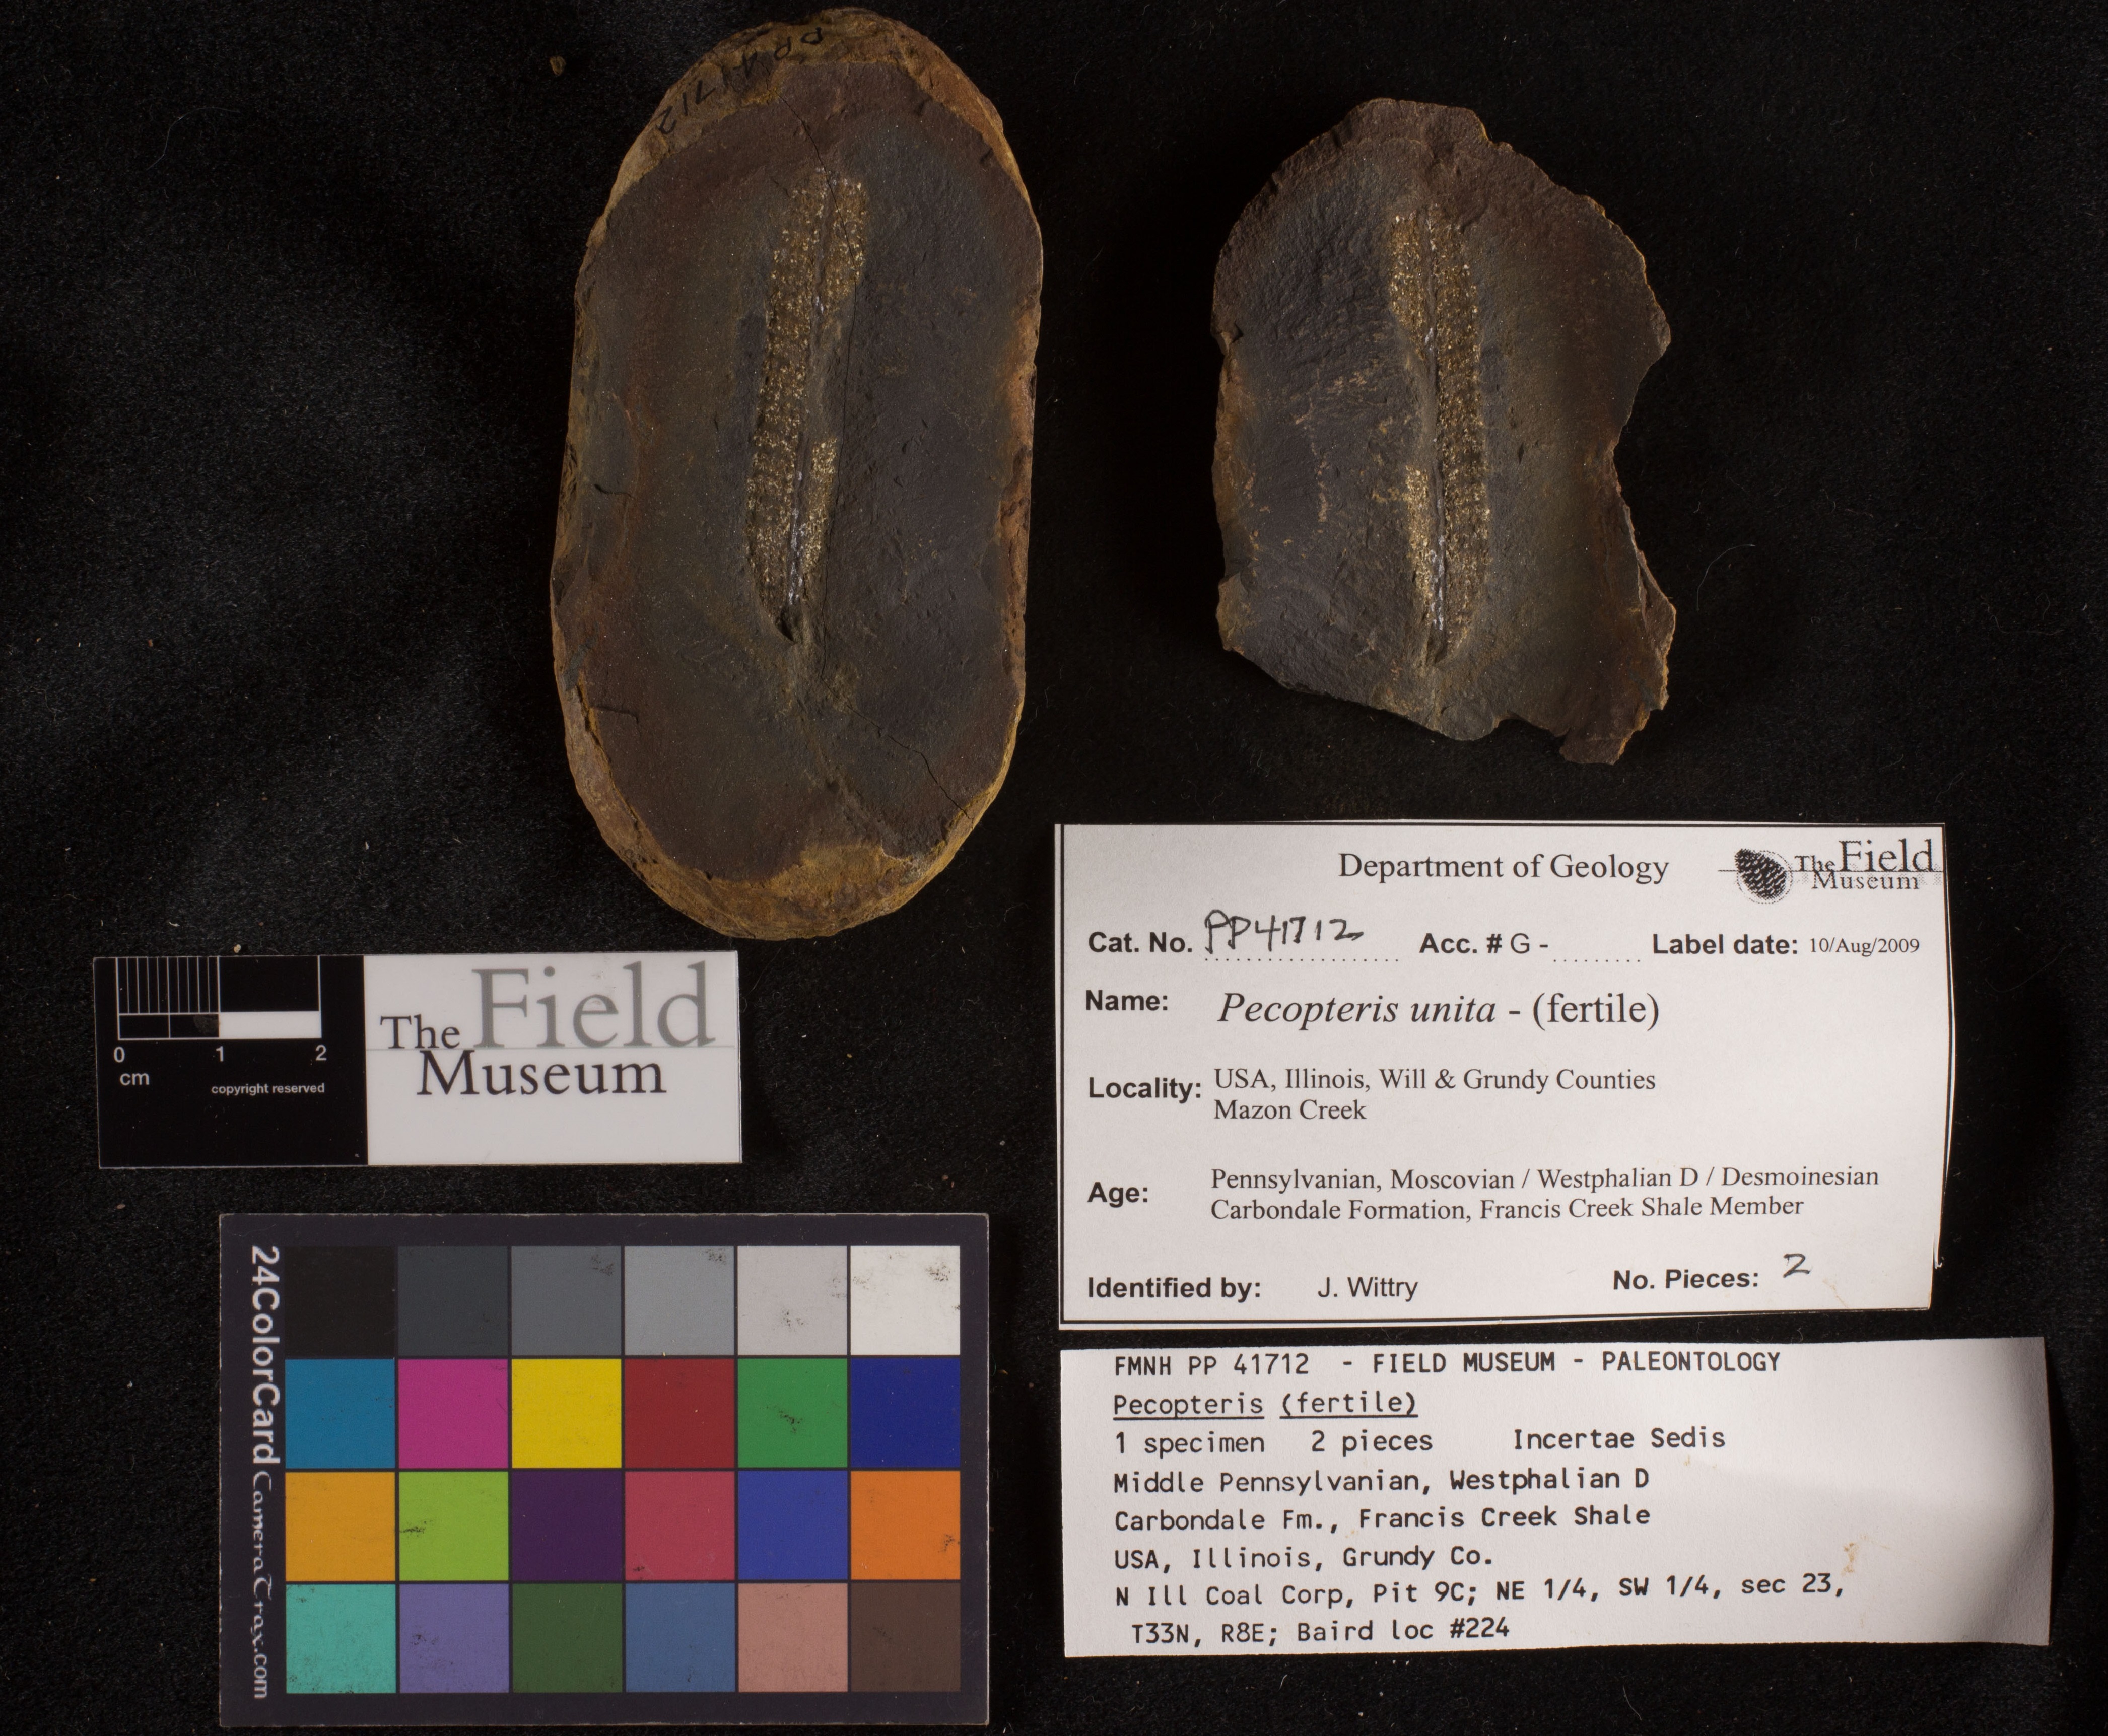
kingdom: Plantae
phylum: Tracheophyta
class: Polypodiopsida
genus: Diplazites
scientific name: Diplazites
